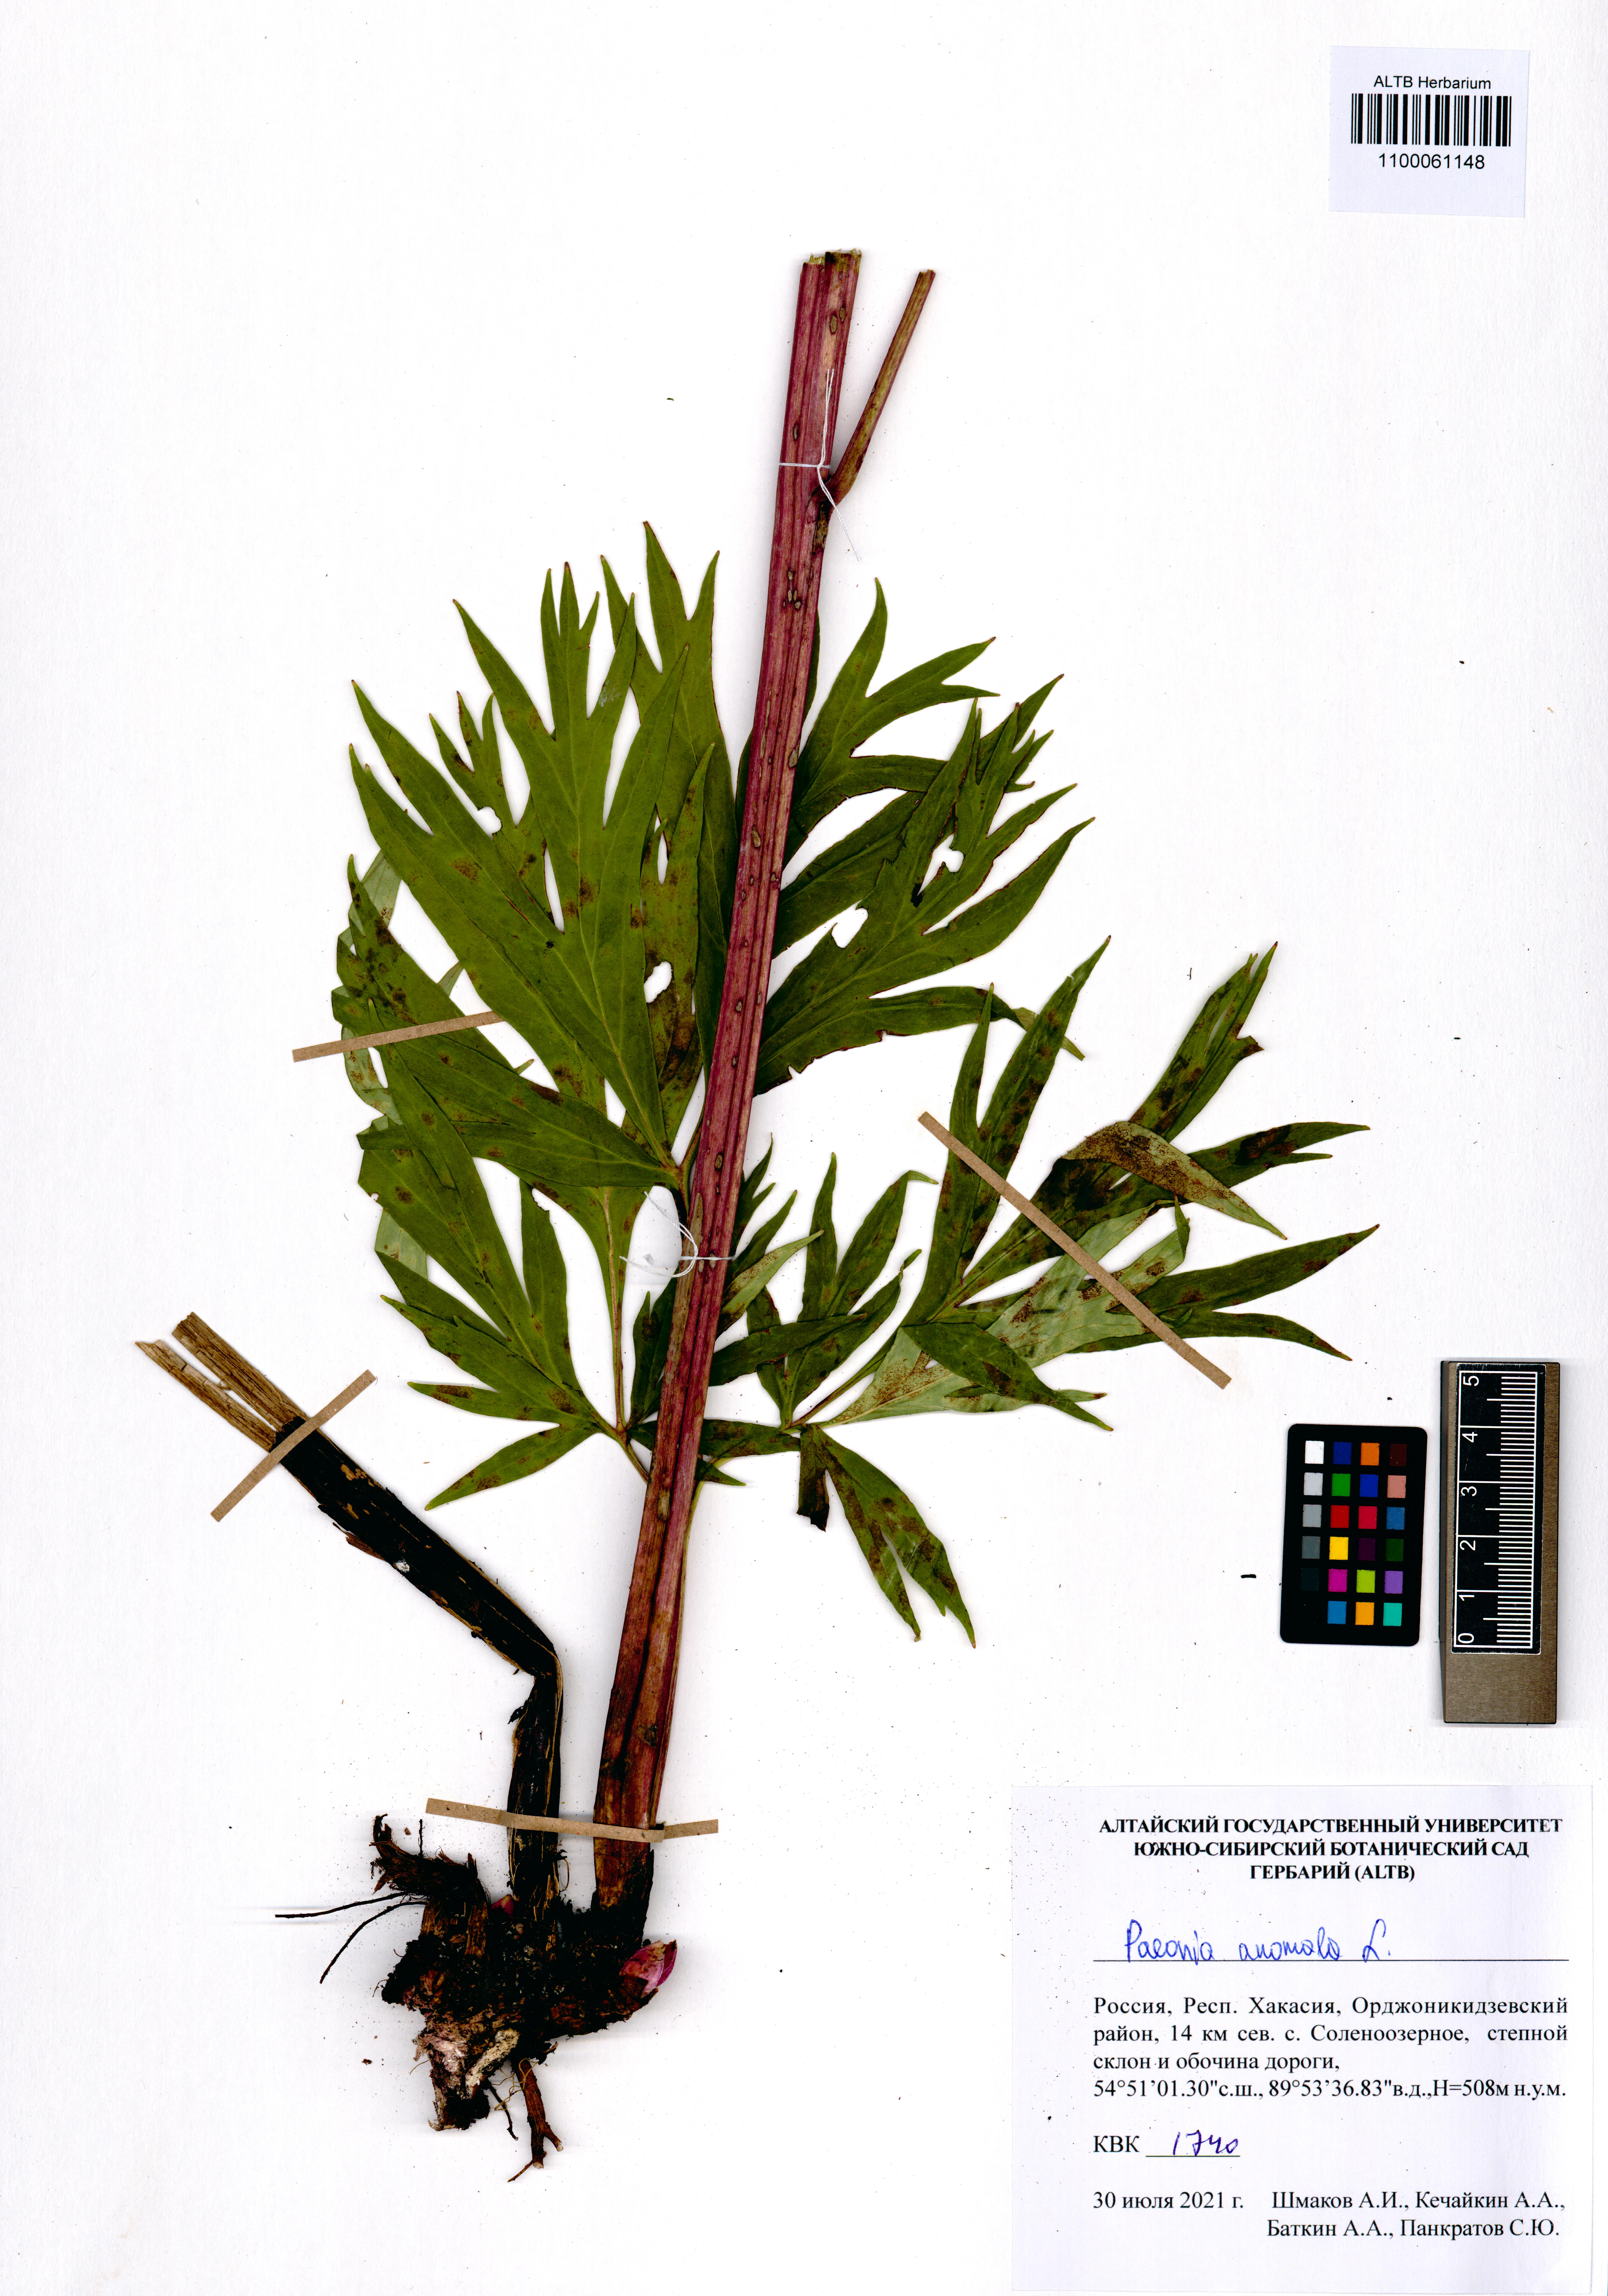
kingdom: Plantae
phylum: Tracheophyta
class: Magnoliopsida
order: Saxifragales
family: Paeoniaceae
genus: Paeonia
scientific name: Paeonia anomala
